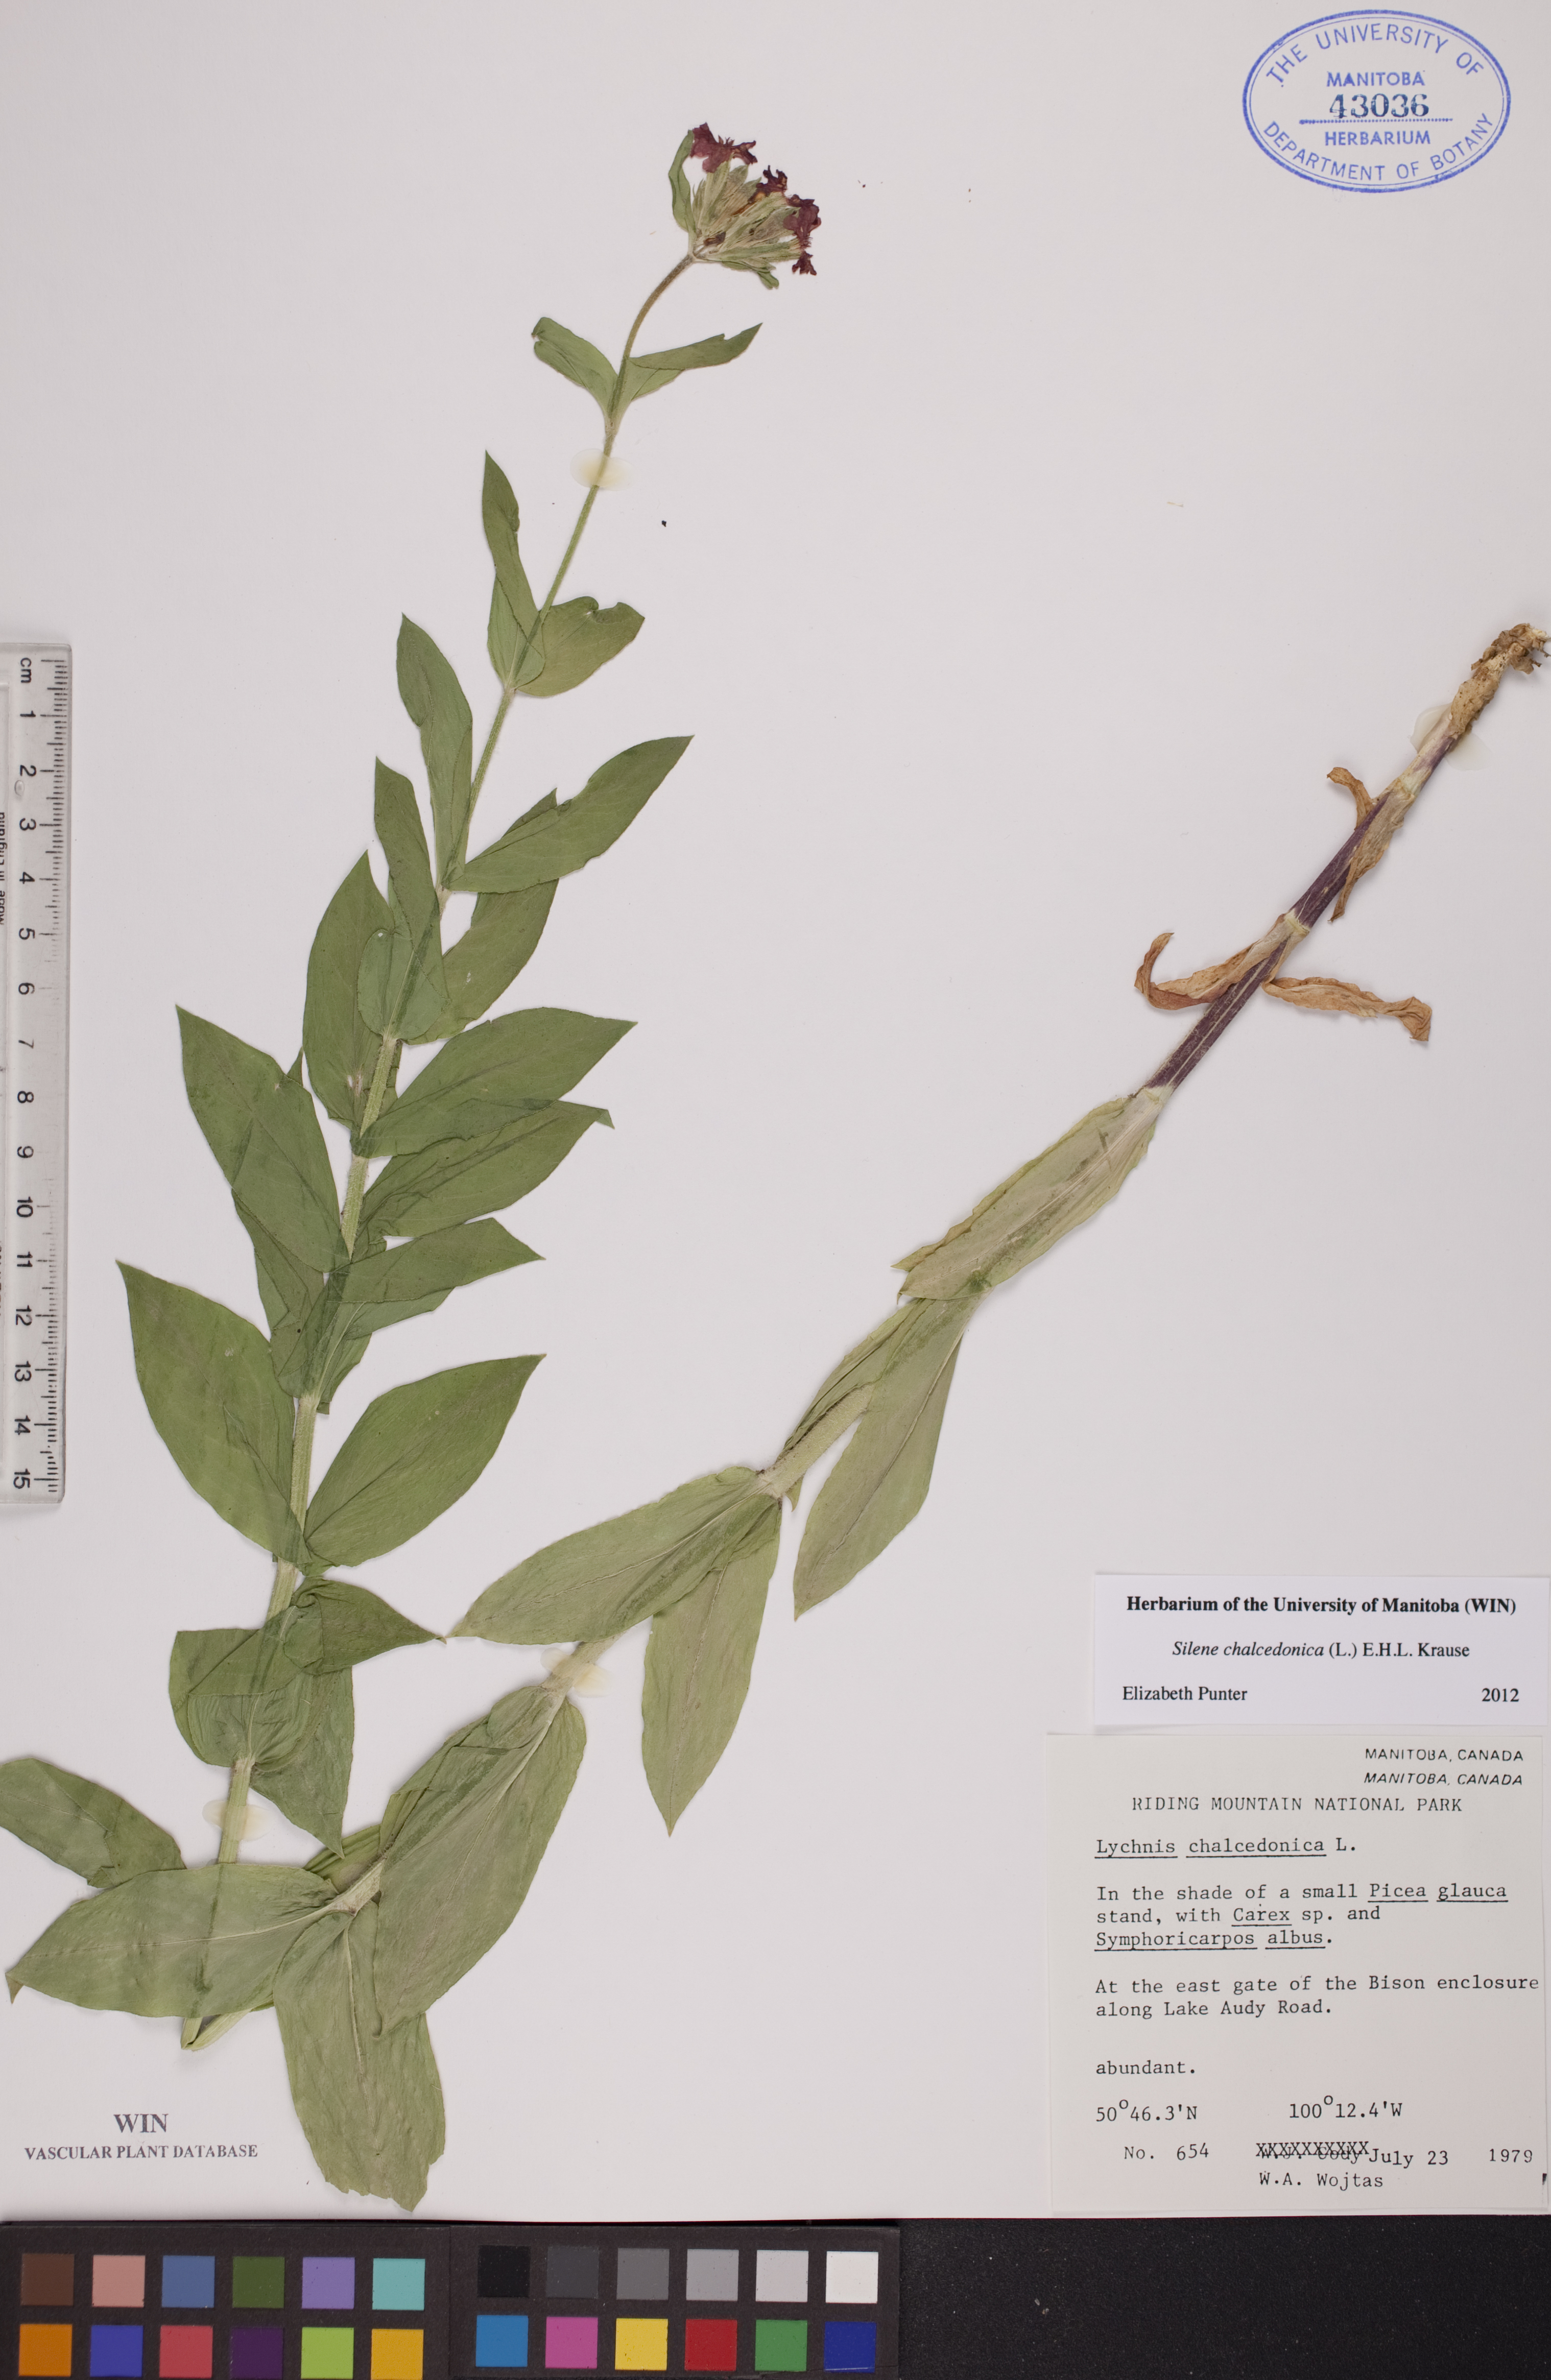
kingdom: Plantae
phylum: Tracheophyta
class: Magnoliopsida
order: Caryophyllales
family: Caryophyllaceae
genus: Silene
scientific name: Silene chalcedonica
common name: Maltese-cross
